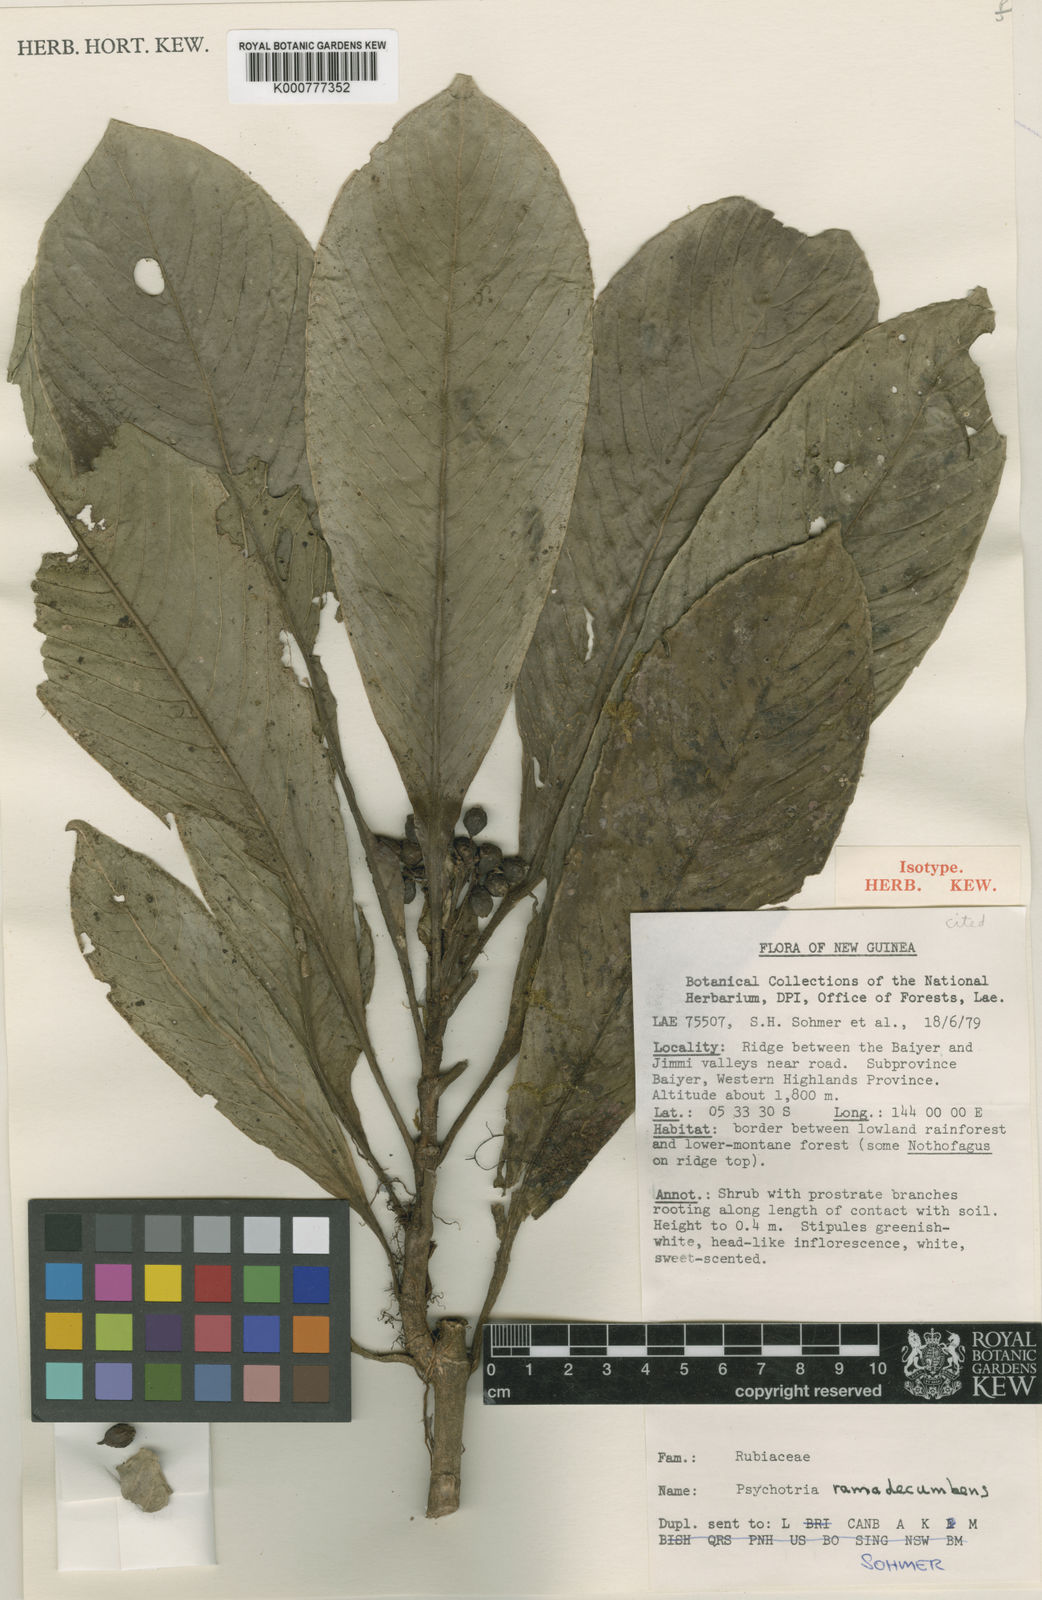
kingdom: Plantae
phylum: Tracheophyta
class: Magnoliopsida
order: Gentianales
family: Rubiaceae
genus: Psychotria
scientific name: Psychotria ramadecumbens
